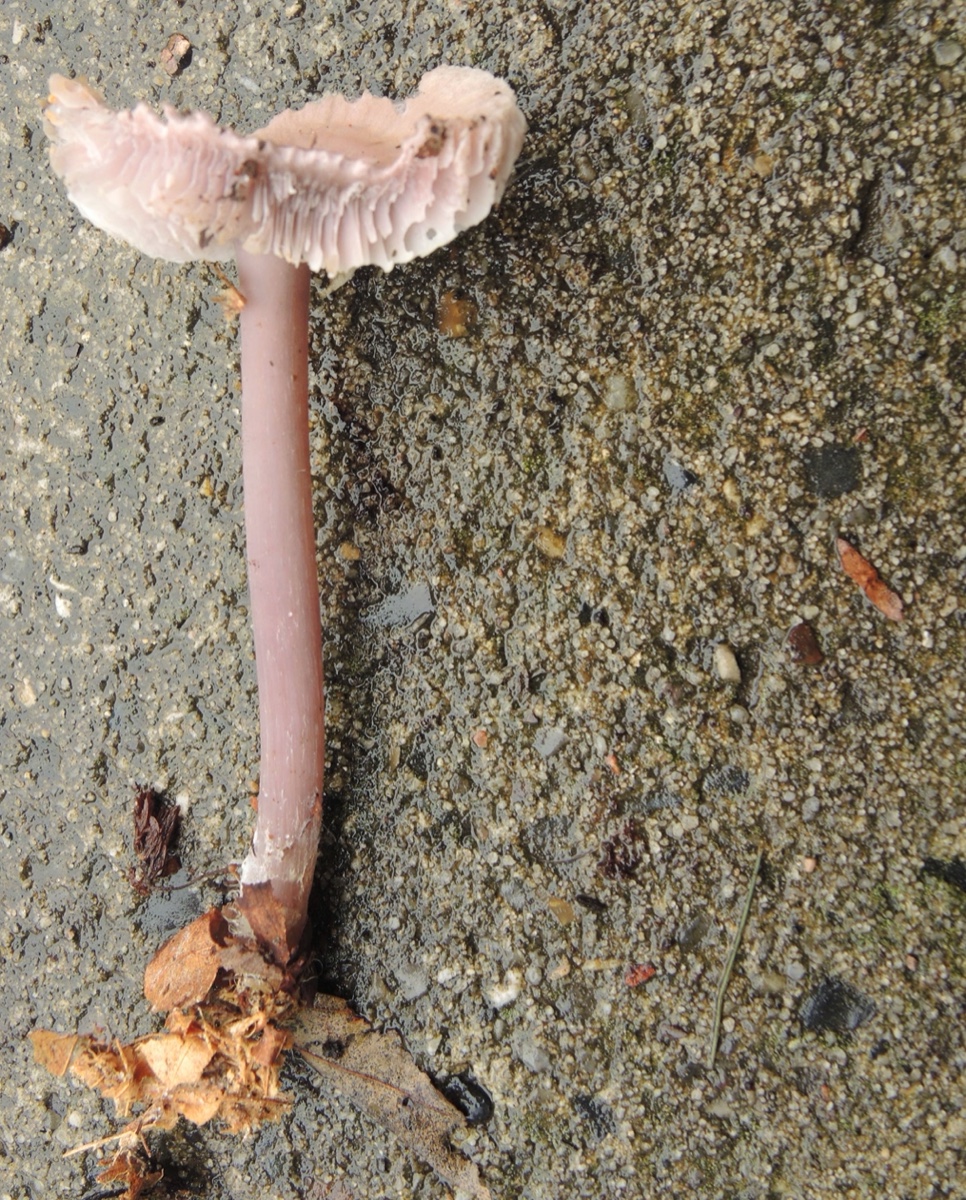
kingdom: Fungi
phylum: Basidiomycota
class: Agaricomycetes
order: Agaricales
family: Mycenaceae
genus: Prunulus
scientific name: Prunulus diosmus
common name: tobaks-huesvamp
